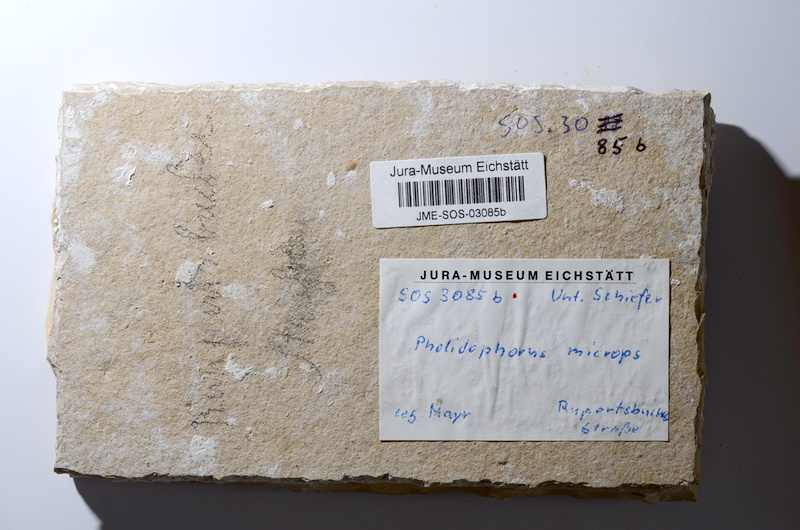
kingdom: Animalia
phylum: Chordata
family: Ankylophoridae
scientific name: Ankylophoridae
